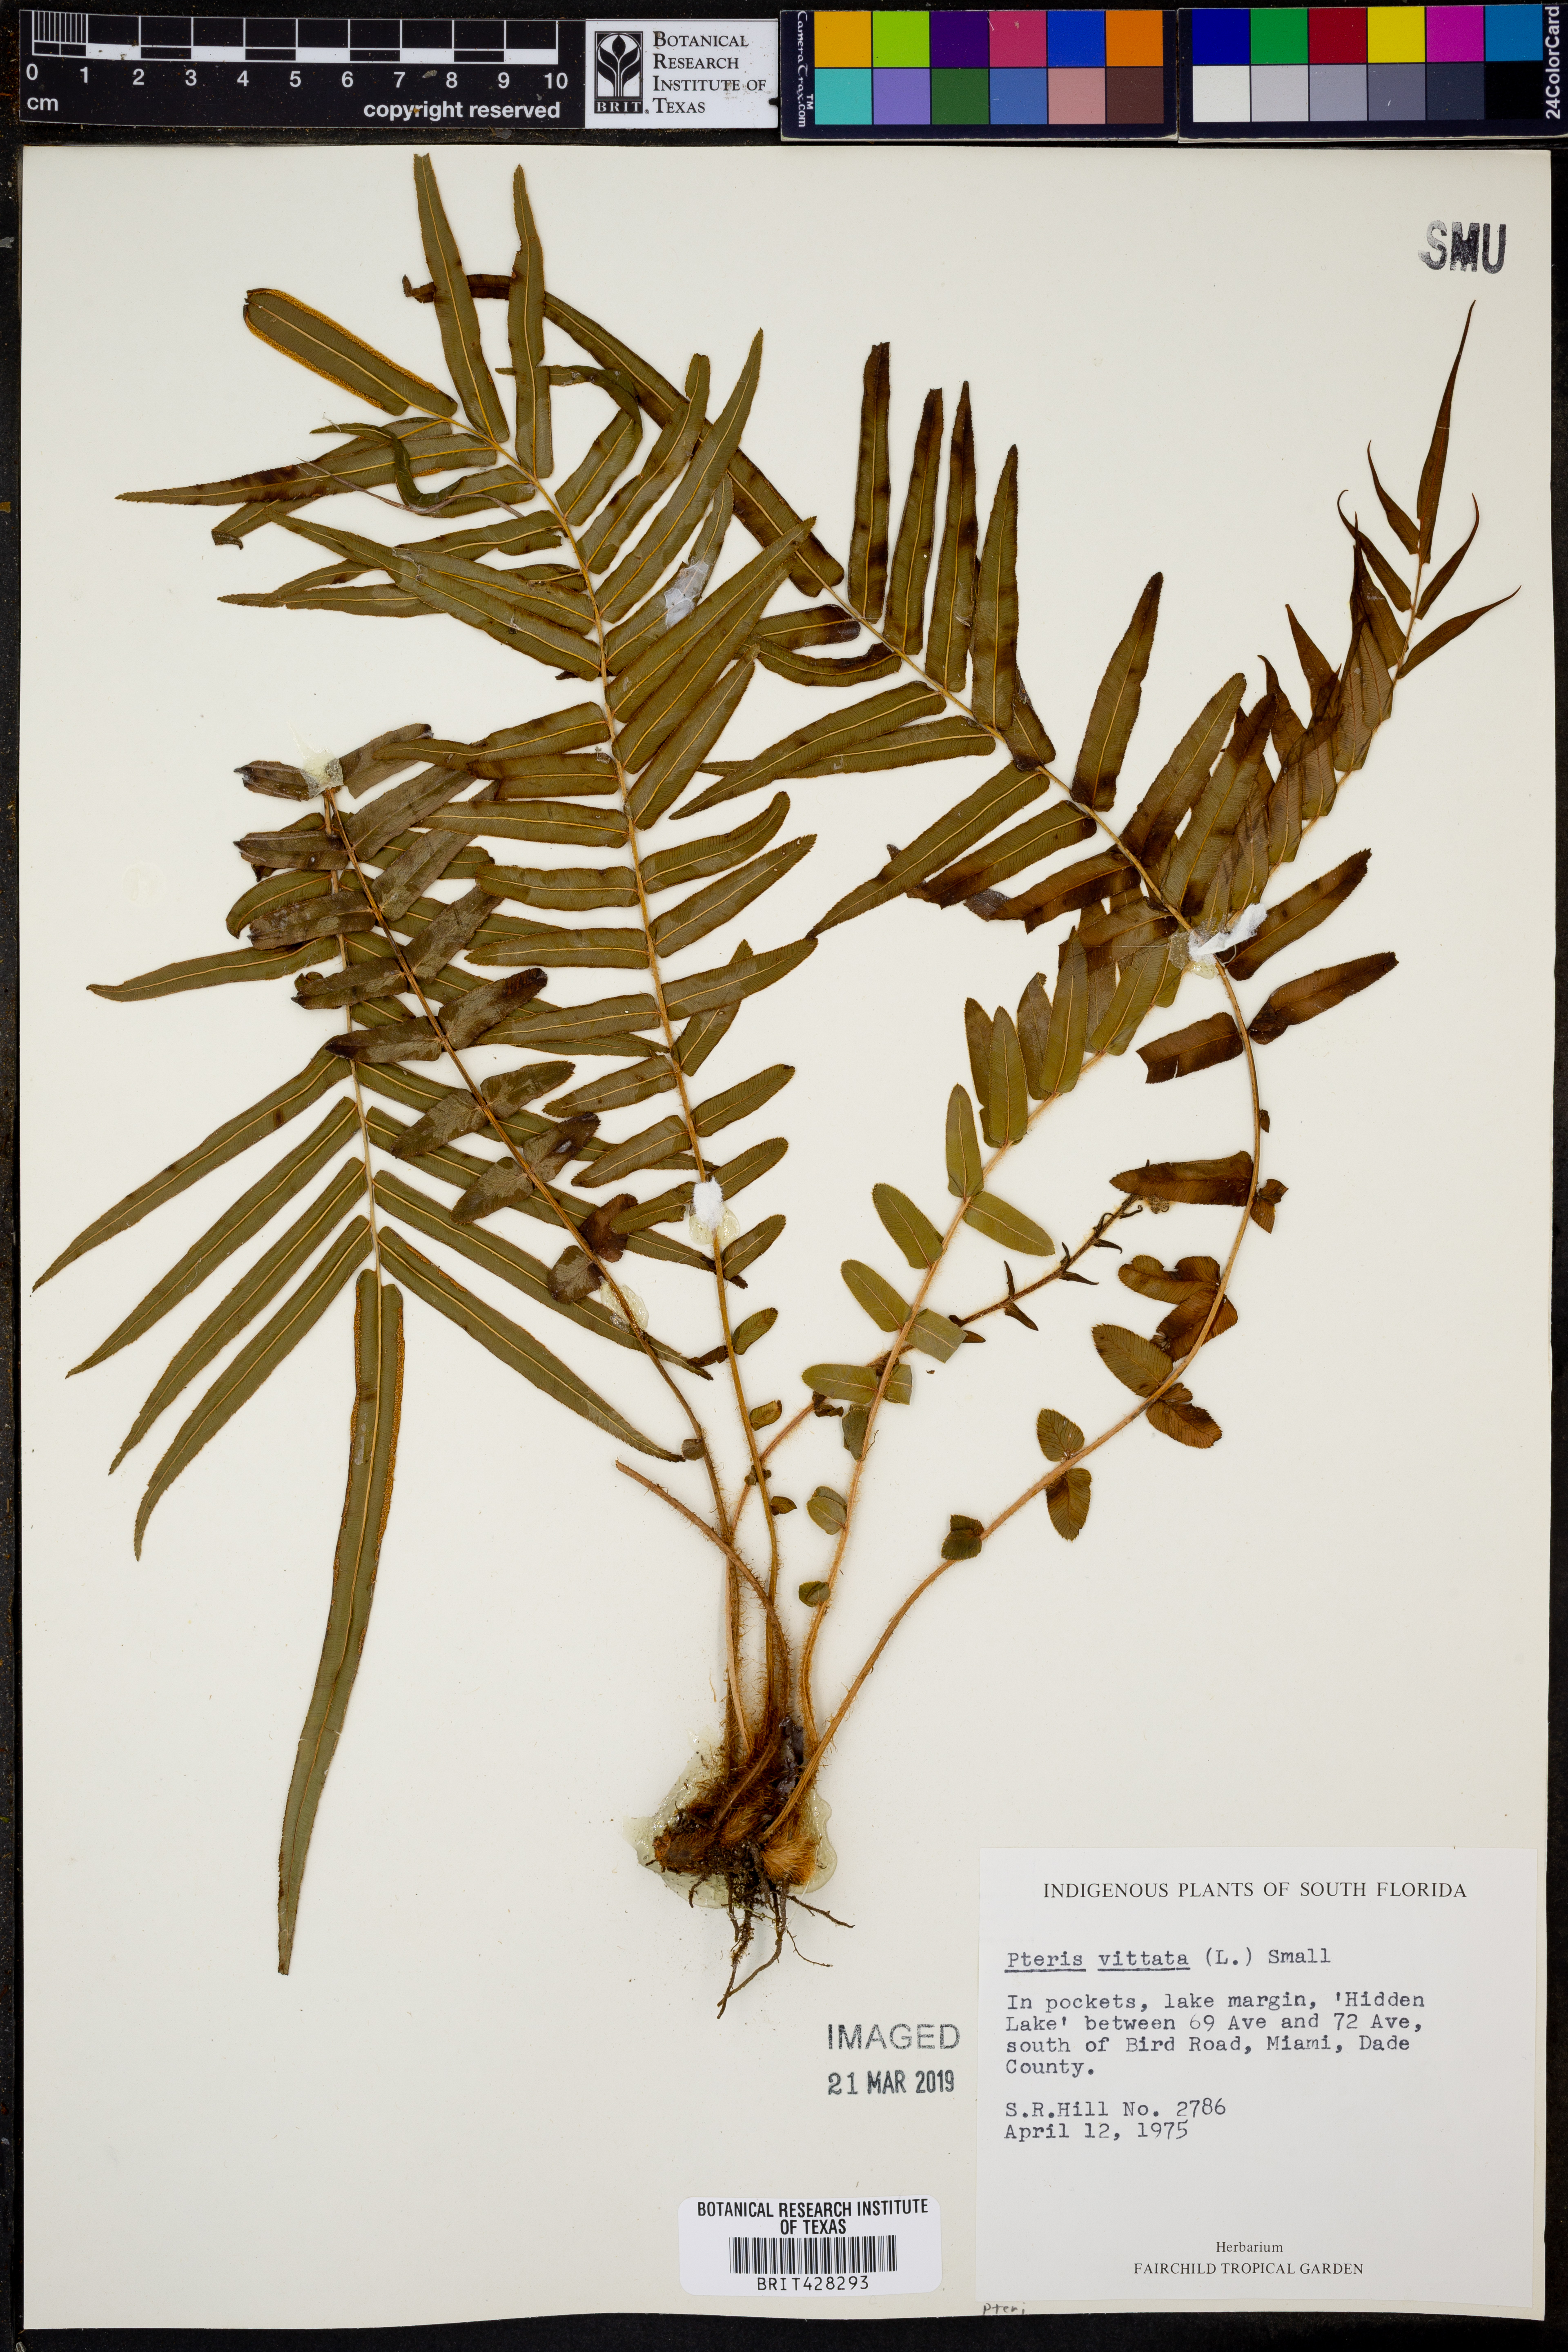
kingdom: Plantae
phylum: Tracheophyta
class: Polypodiopsida
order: Polypodiales
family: Pteridaceae
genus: Pteris
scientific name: Pteris vittata
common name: Ladder brake
